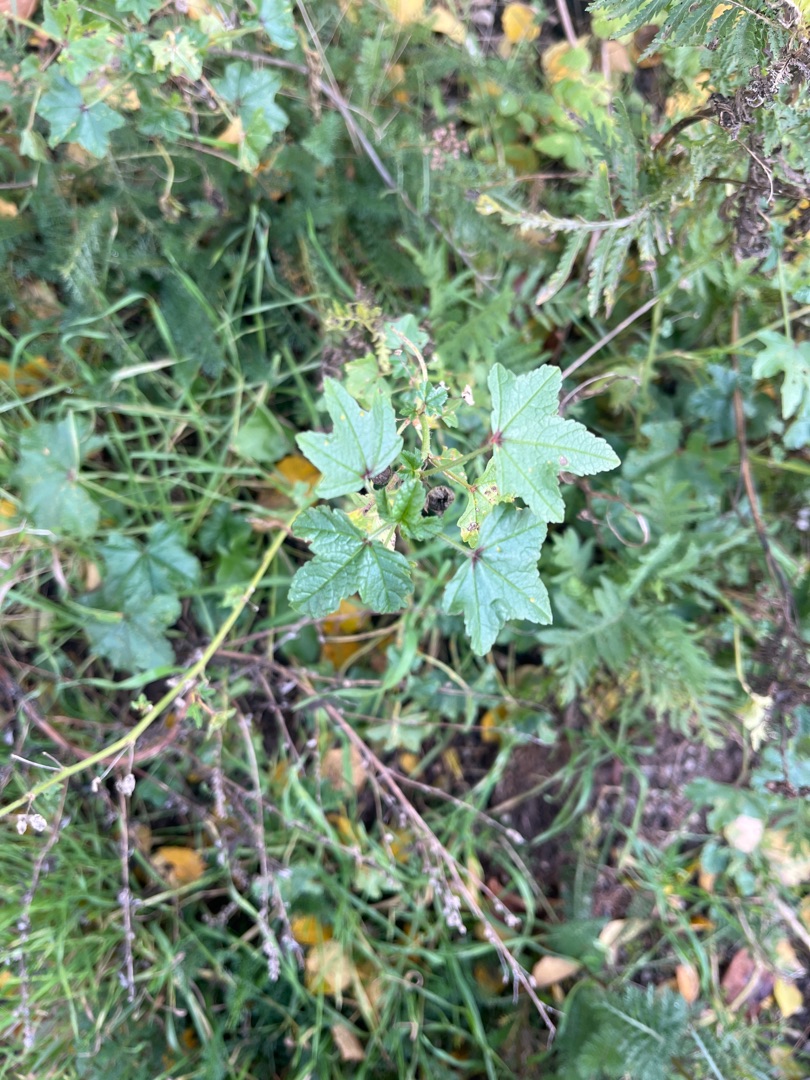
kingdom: Plantae
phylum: Tracheophyta
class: Magnoliopsida
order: Malvales
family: Malvaceae
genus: Malva
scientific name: Malva sylvestris
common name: Almindelig katost
